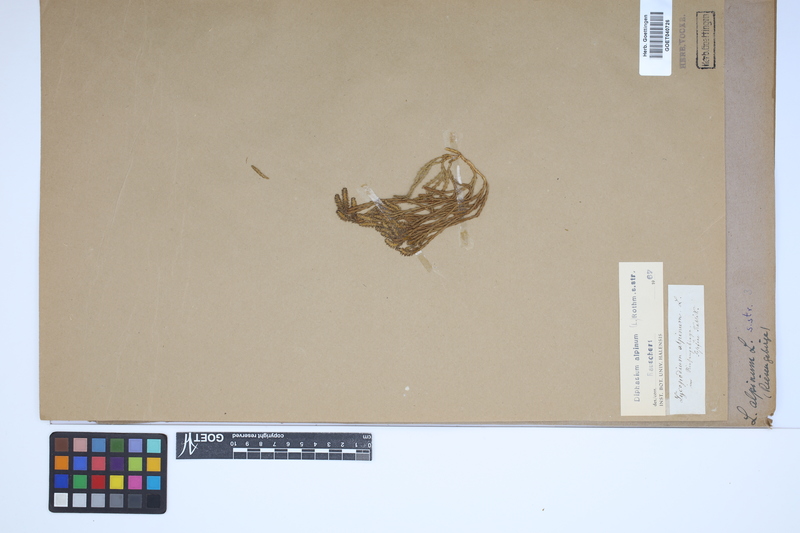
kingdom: Plantae
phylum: Tracheophyta
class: Lycopodiopsida
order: Lycopodiales
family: Lycopodiaceae
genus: Diphasiastrum
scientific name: Diphasiastrum alpinum
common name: Alpine clubmoss
